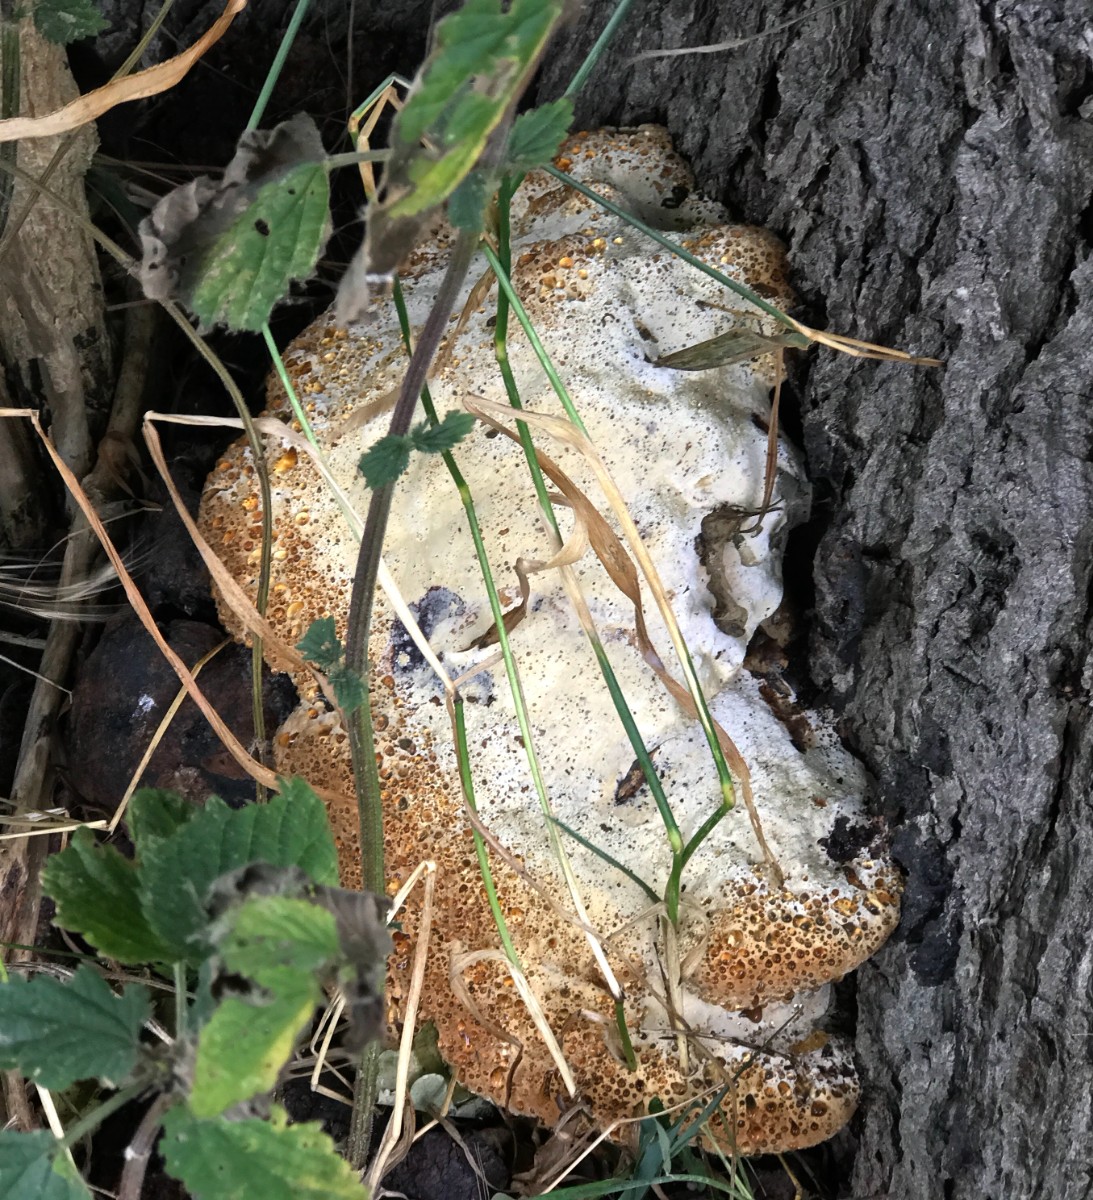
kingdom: Fungi
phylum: Basidiomycota
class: Agaricomycetes
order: Hymenochaetales
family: Hymenochaetaceae
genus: Pseudoinonotus
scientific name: Pseudoinonotus dryadeus
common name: ege-spejlporesvamp
